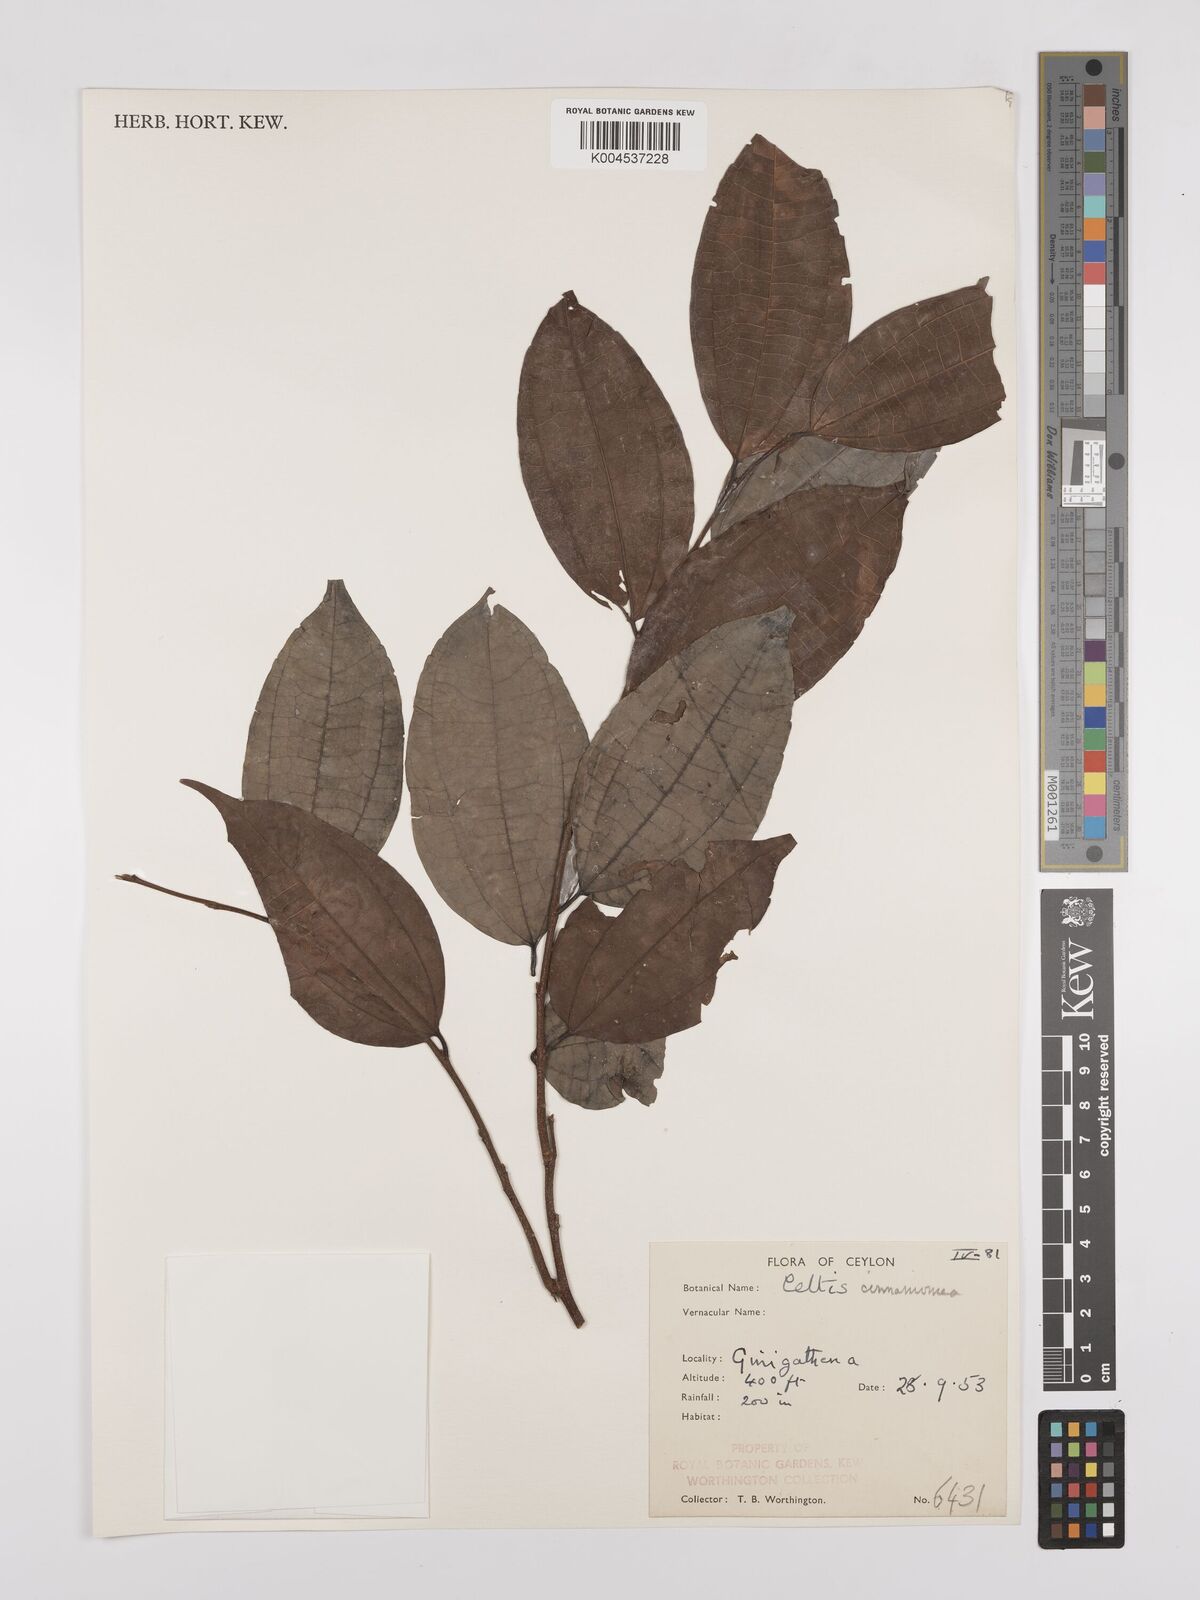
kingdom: Plantae
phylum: Tracheophyta
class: Magnoliopsida
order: Rosales
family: Cannabaceae
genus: Celtis
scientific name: Celtis timorensis
